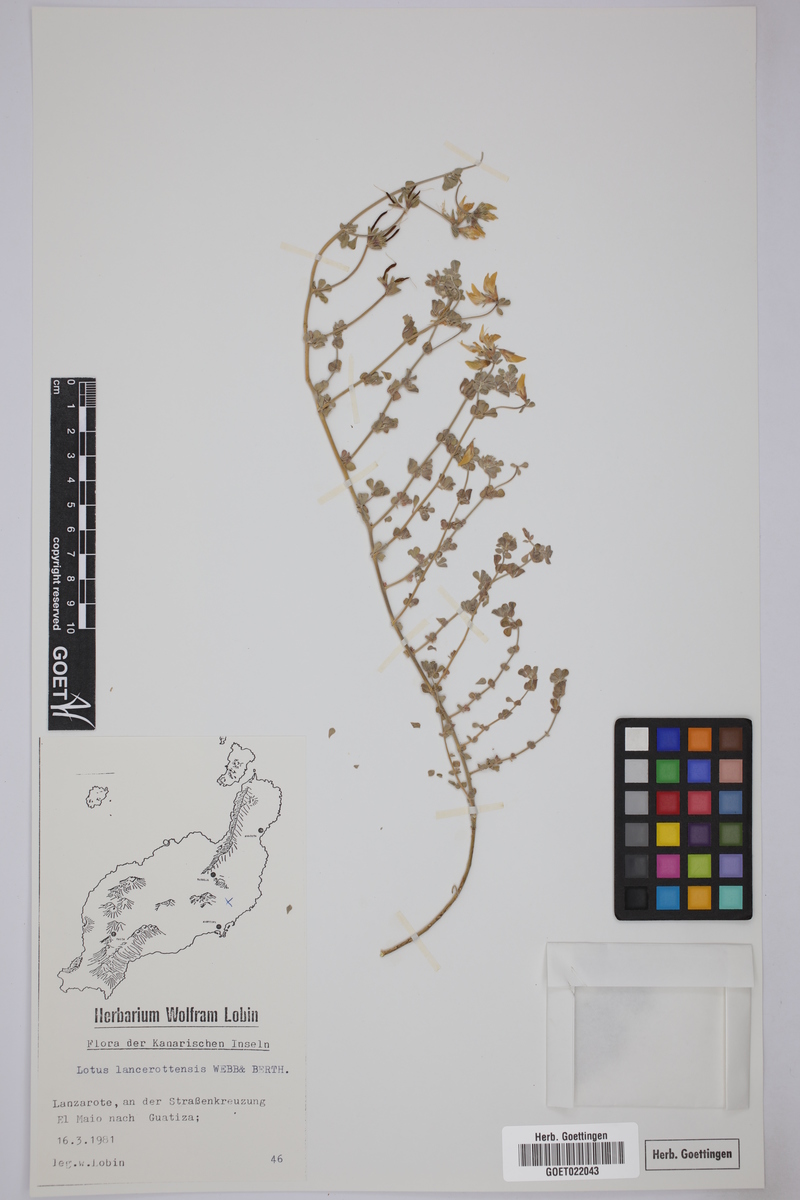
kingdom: Plantae
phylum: Tracheophyta
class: Magnoliopsida
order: Fabales
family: Fabaceae
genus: Lotus
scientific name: Lotus lancerottensis
